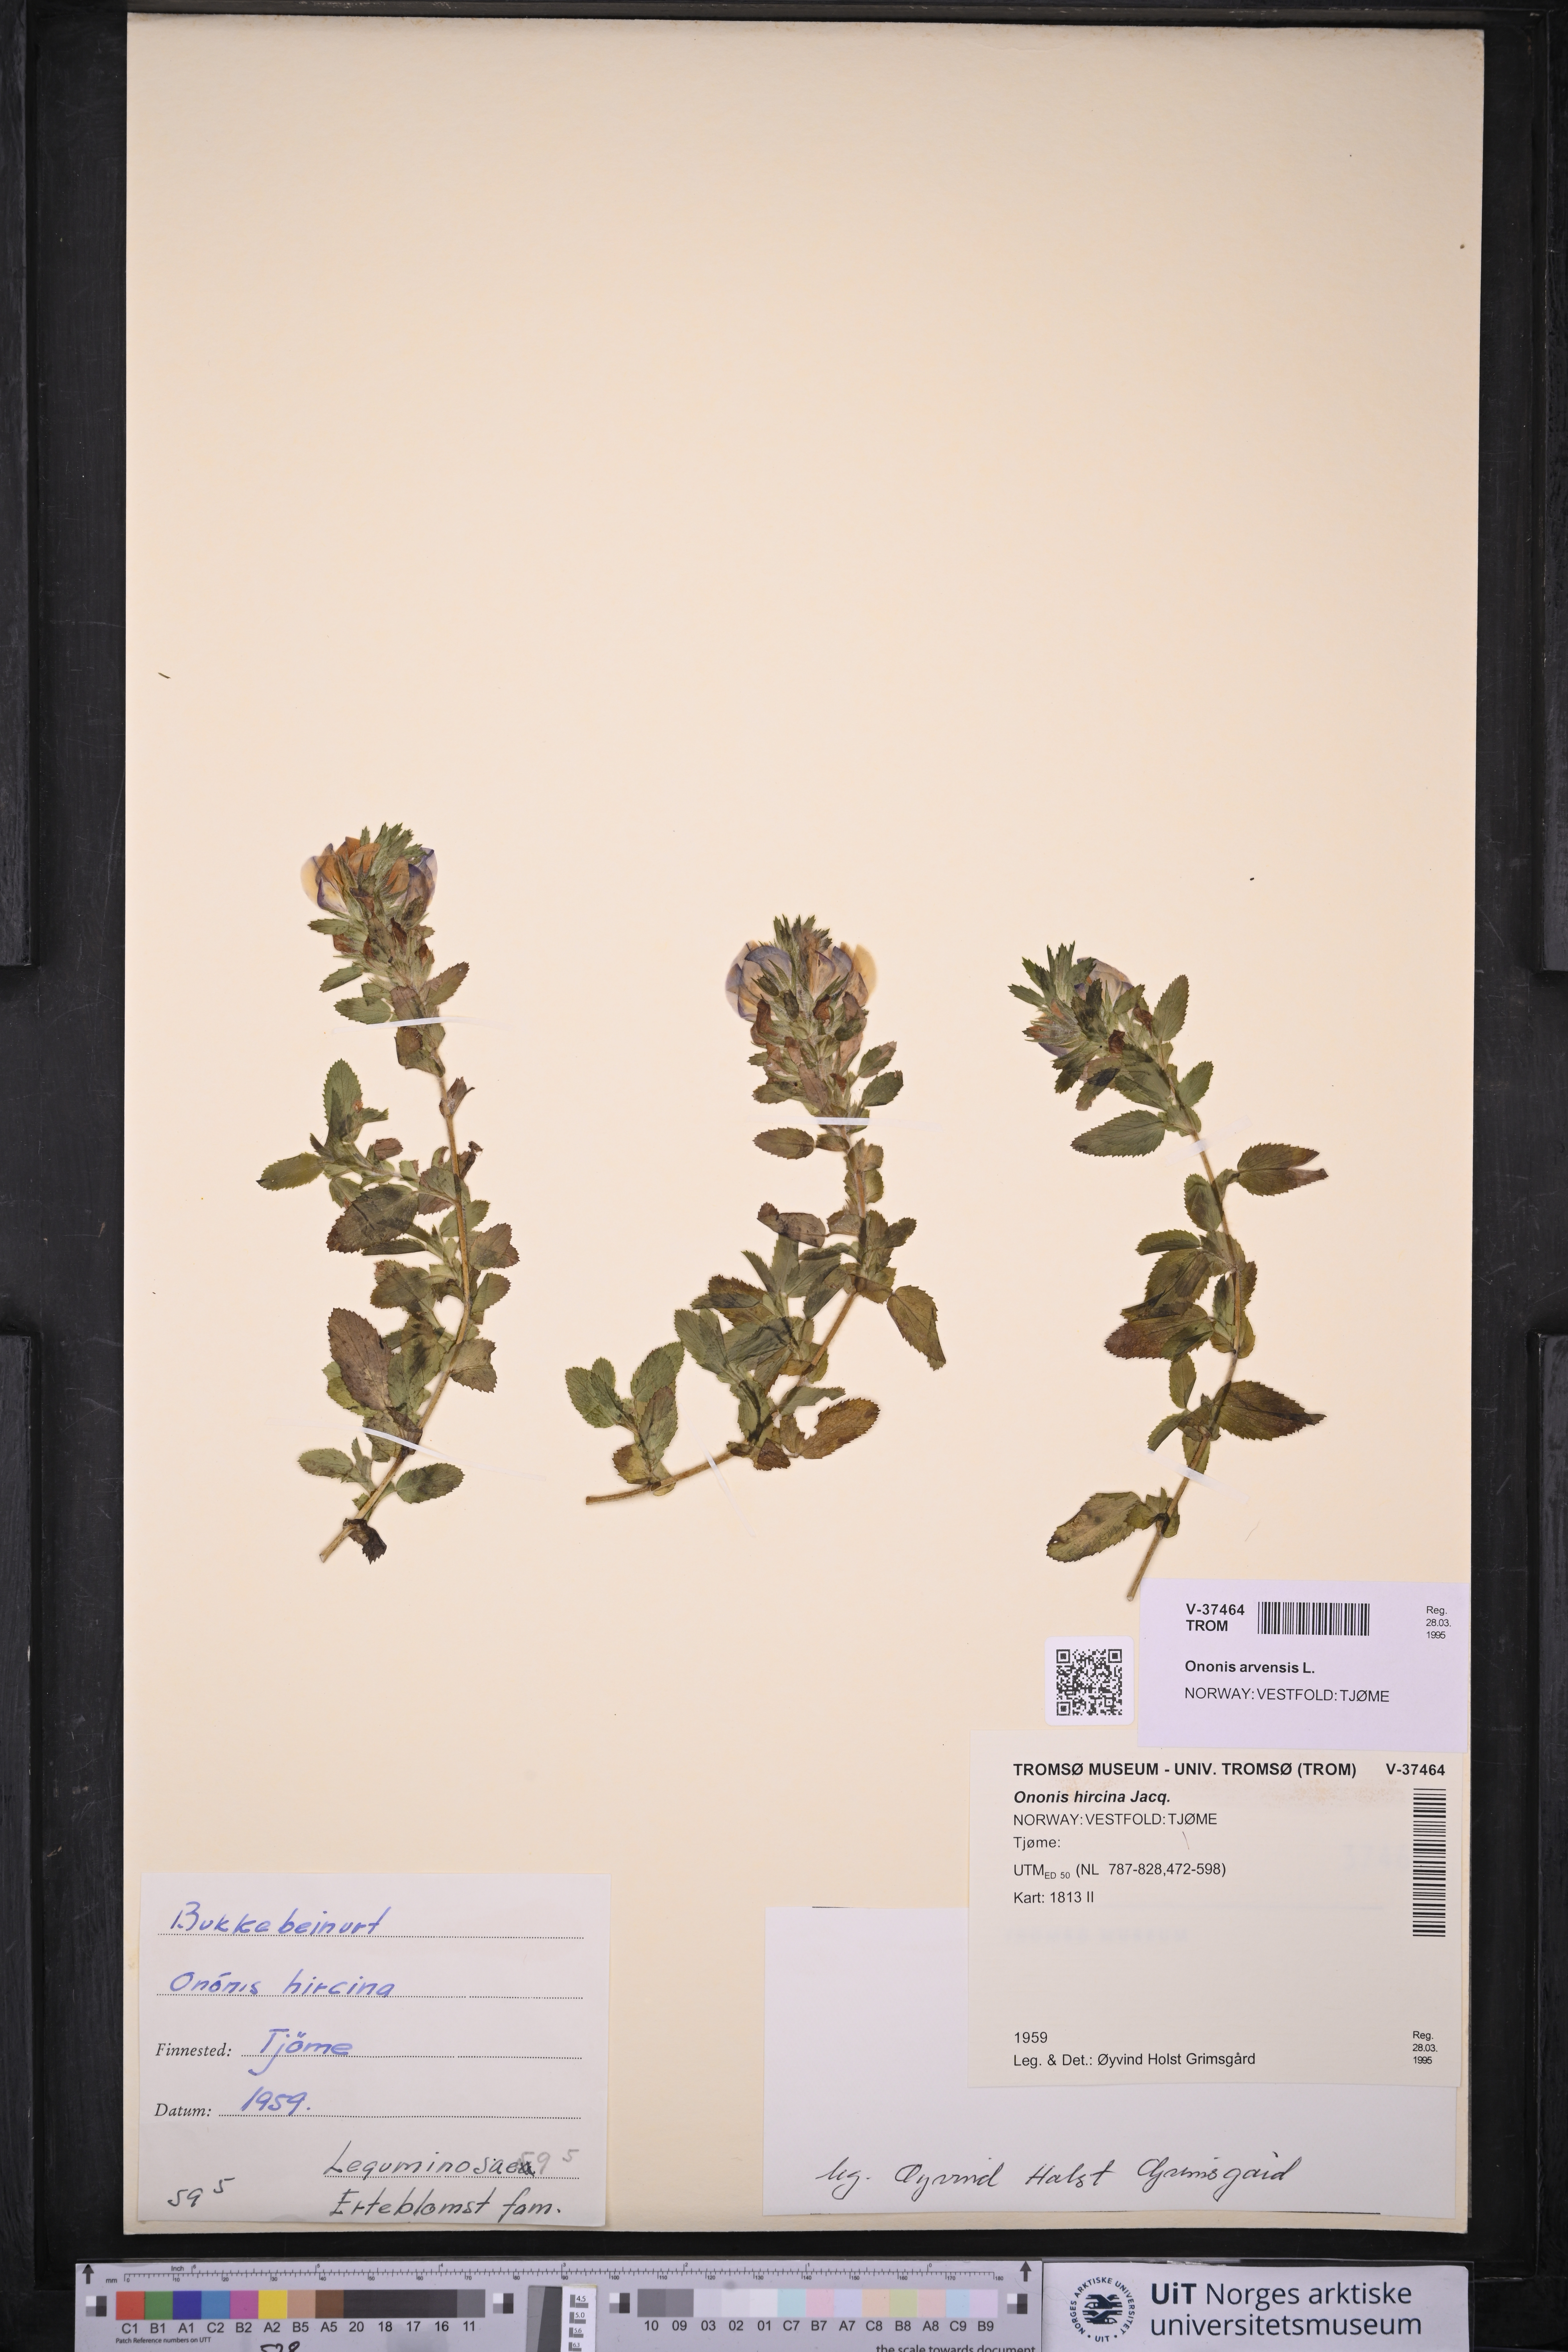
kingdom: Plantae
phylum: Tracheophyta
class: Magnoliopsida
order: Fabales
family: Fabaceae
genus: Ononis
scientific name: Ononis arvensis
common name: Field restharrow
